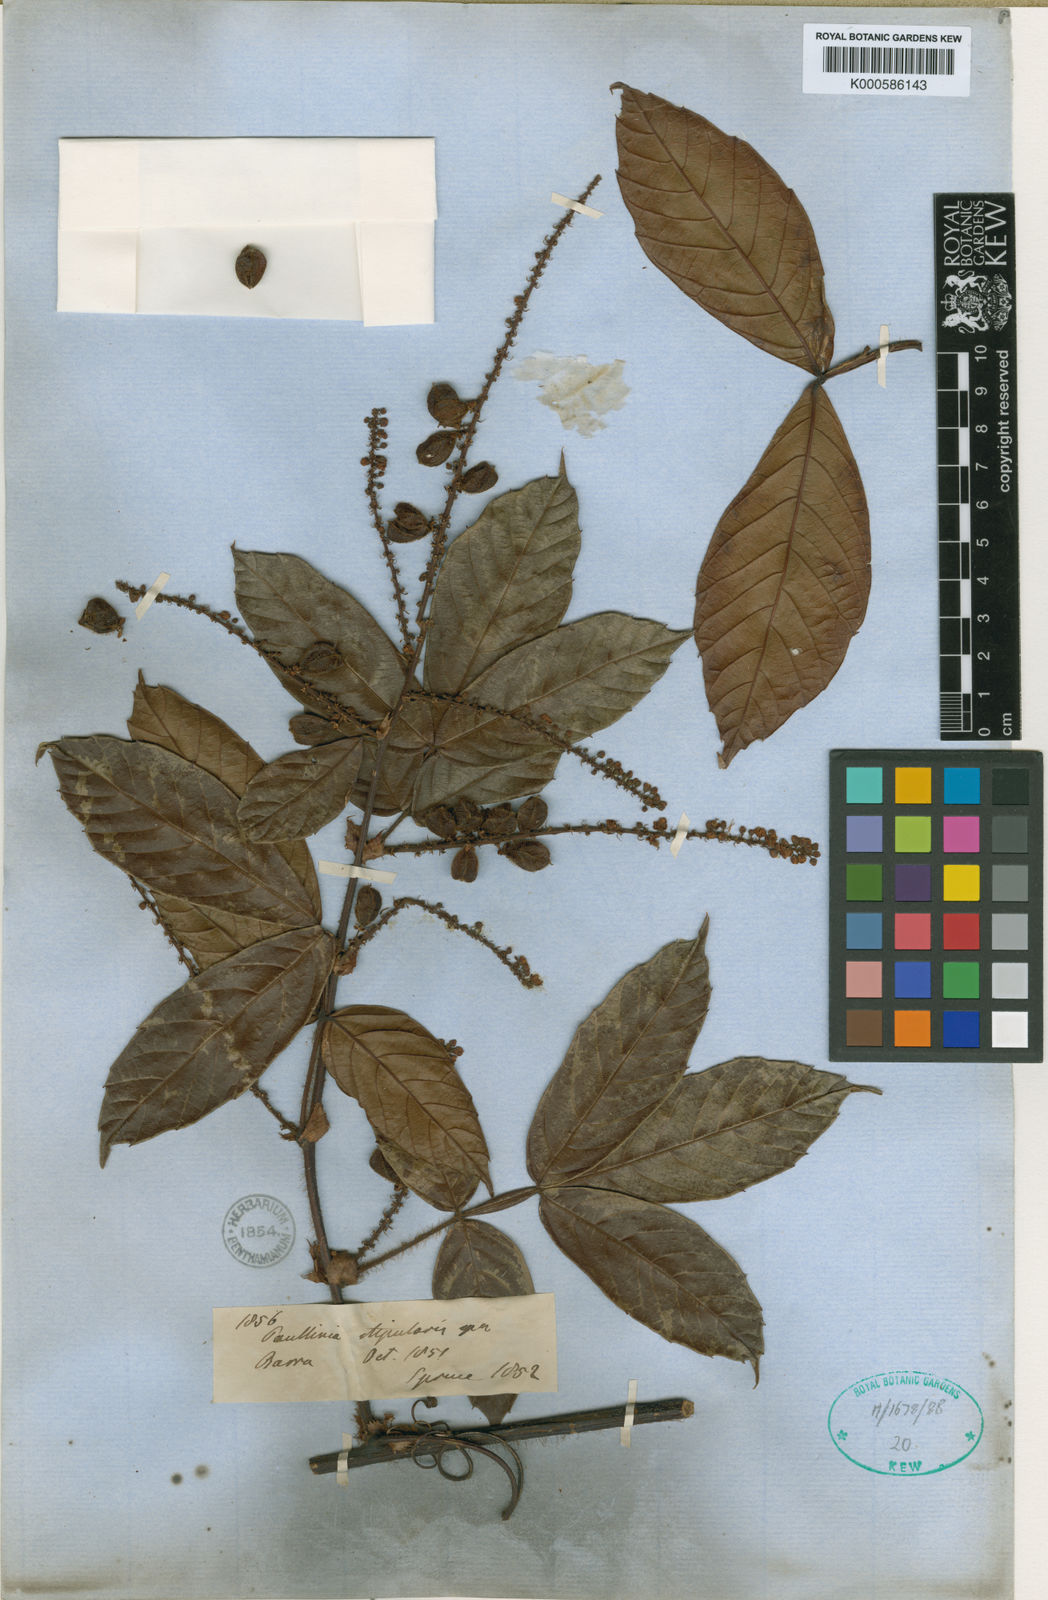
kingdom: Plantae
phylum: Tracheophyta
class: Magnoliopsida
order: Sapindales
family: Sapindaceae
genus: Paullinia
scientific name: Paullinia stipularis
